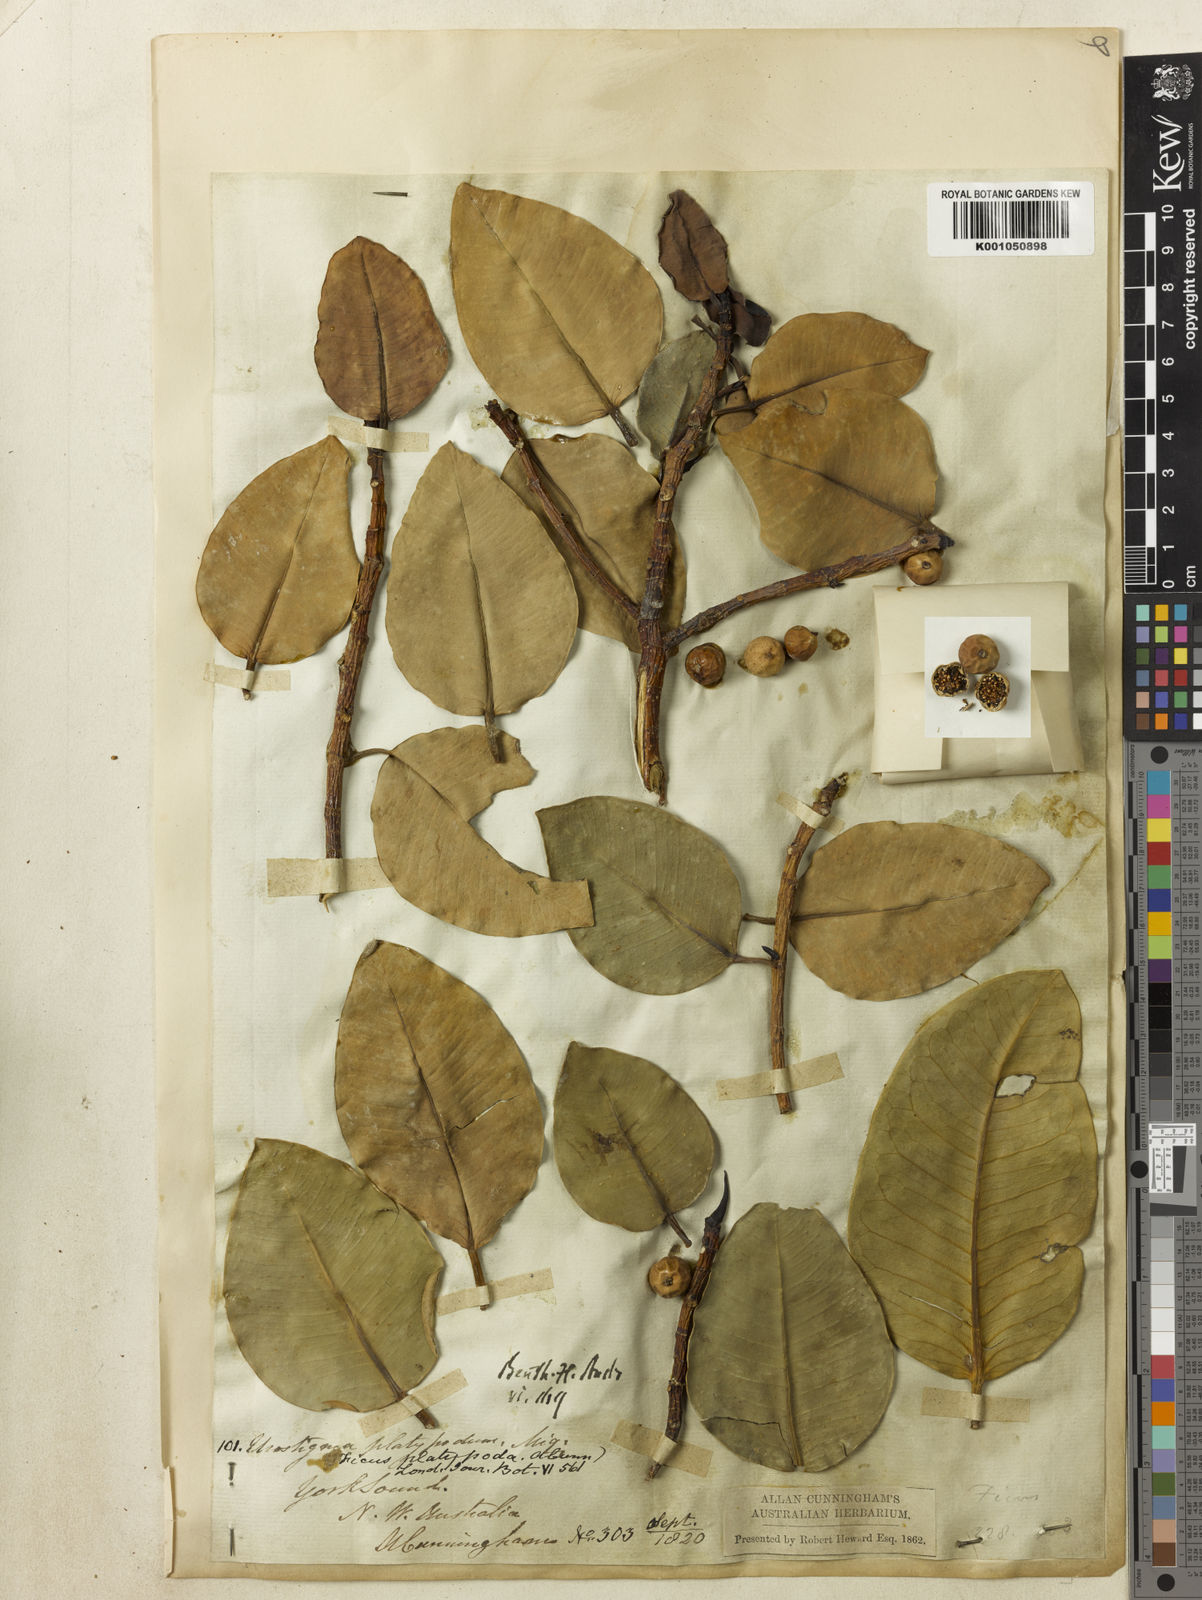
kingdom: Plantae
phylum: Tracheophyta
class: Magnoliopsida
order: Rosales
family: Moraceae
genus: Ficus
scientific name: Ficus platypoda
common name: Fig
